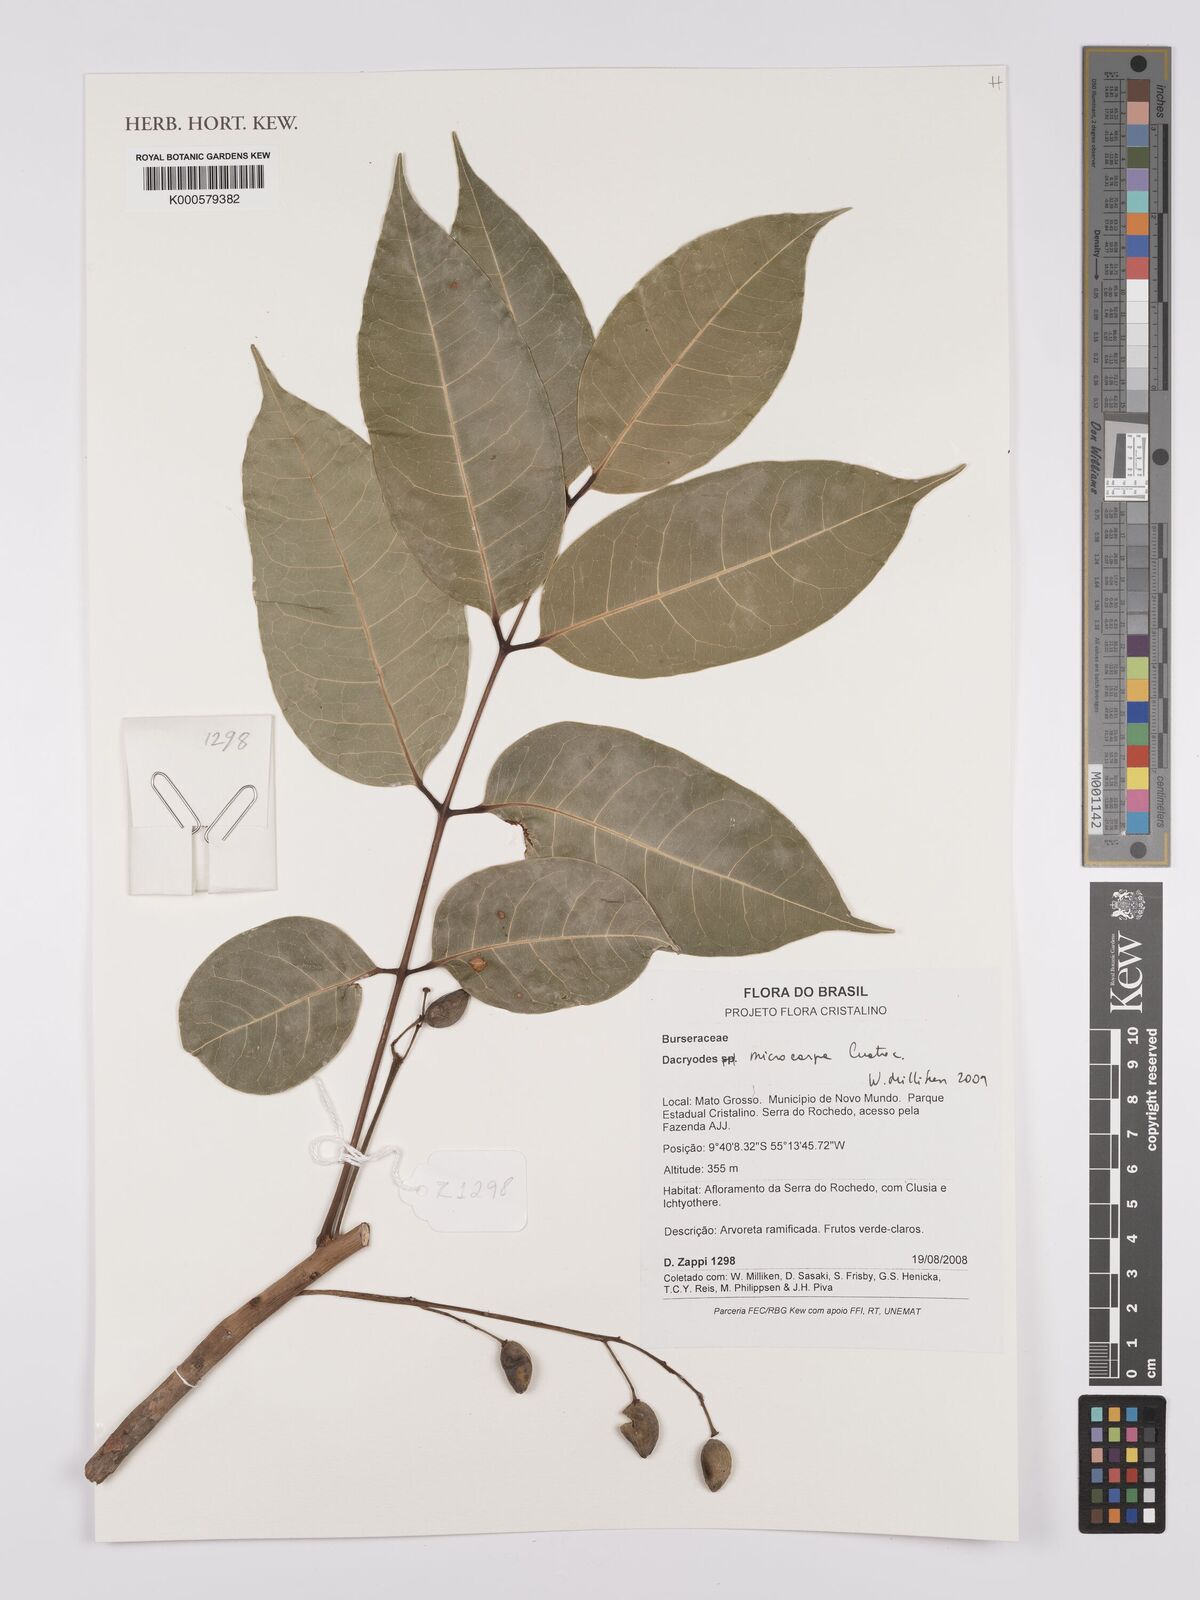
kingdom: Plantae
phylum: Tracheophyta
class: Magnoliopsida
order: Sapindales
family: Burseraceae
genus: Dacryodes
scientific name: Dacryodes microcarpa
